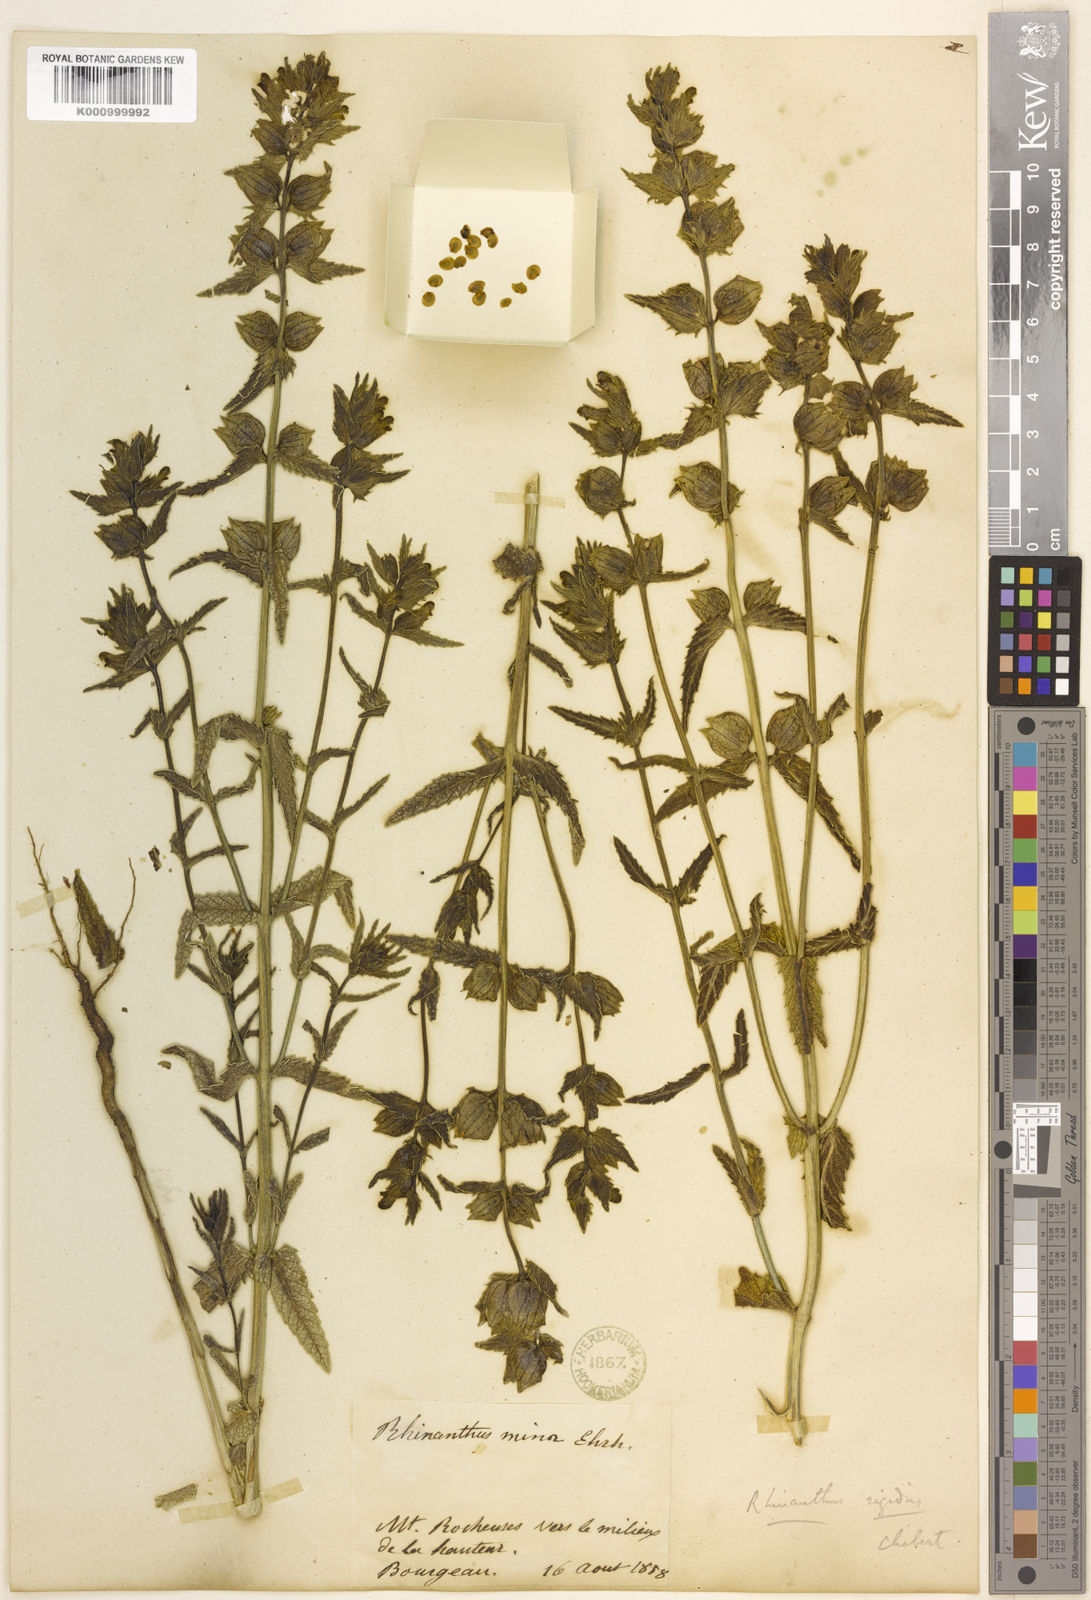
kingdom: Plantae
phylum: Tracheophyta
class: Magnoliopsida
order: Lamiales
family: Orobanchaceae
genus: Rhinanthus
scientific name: Rhinanthus
